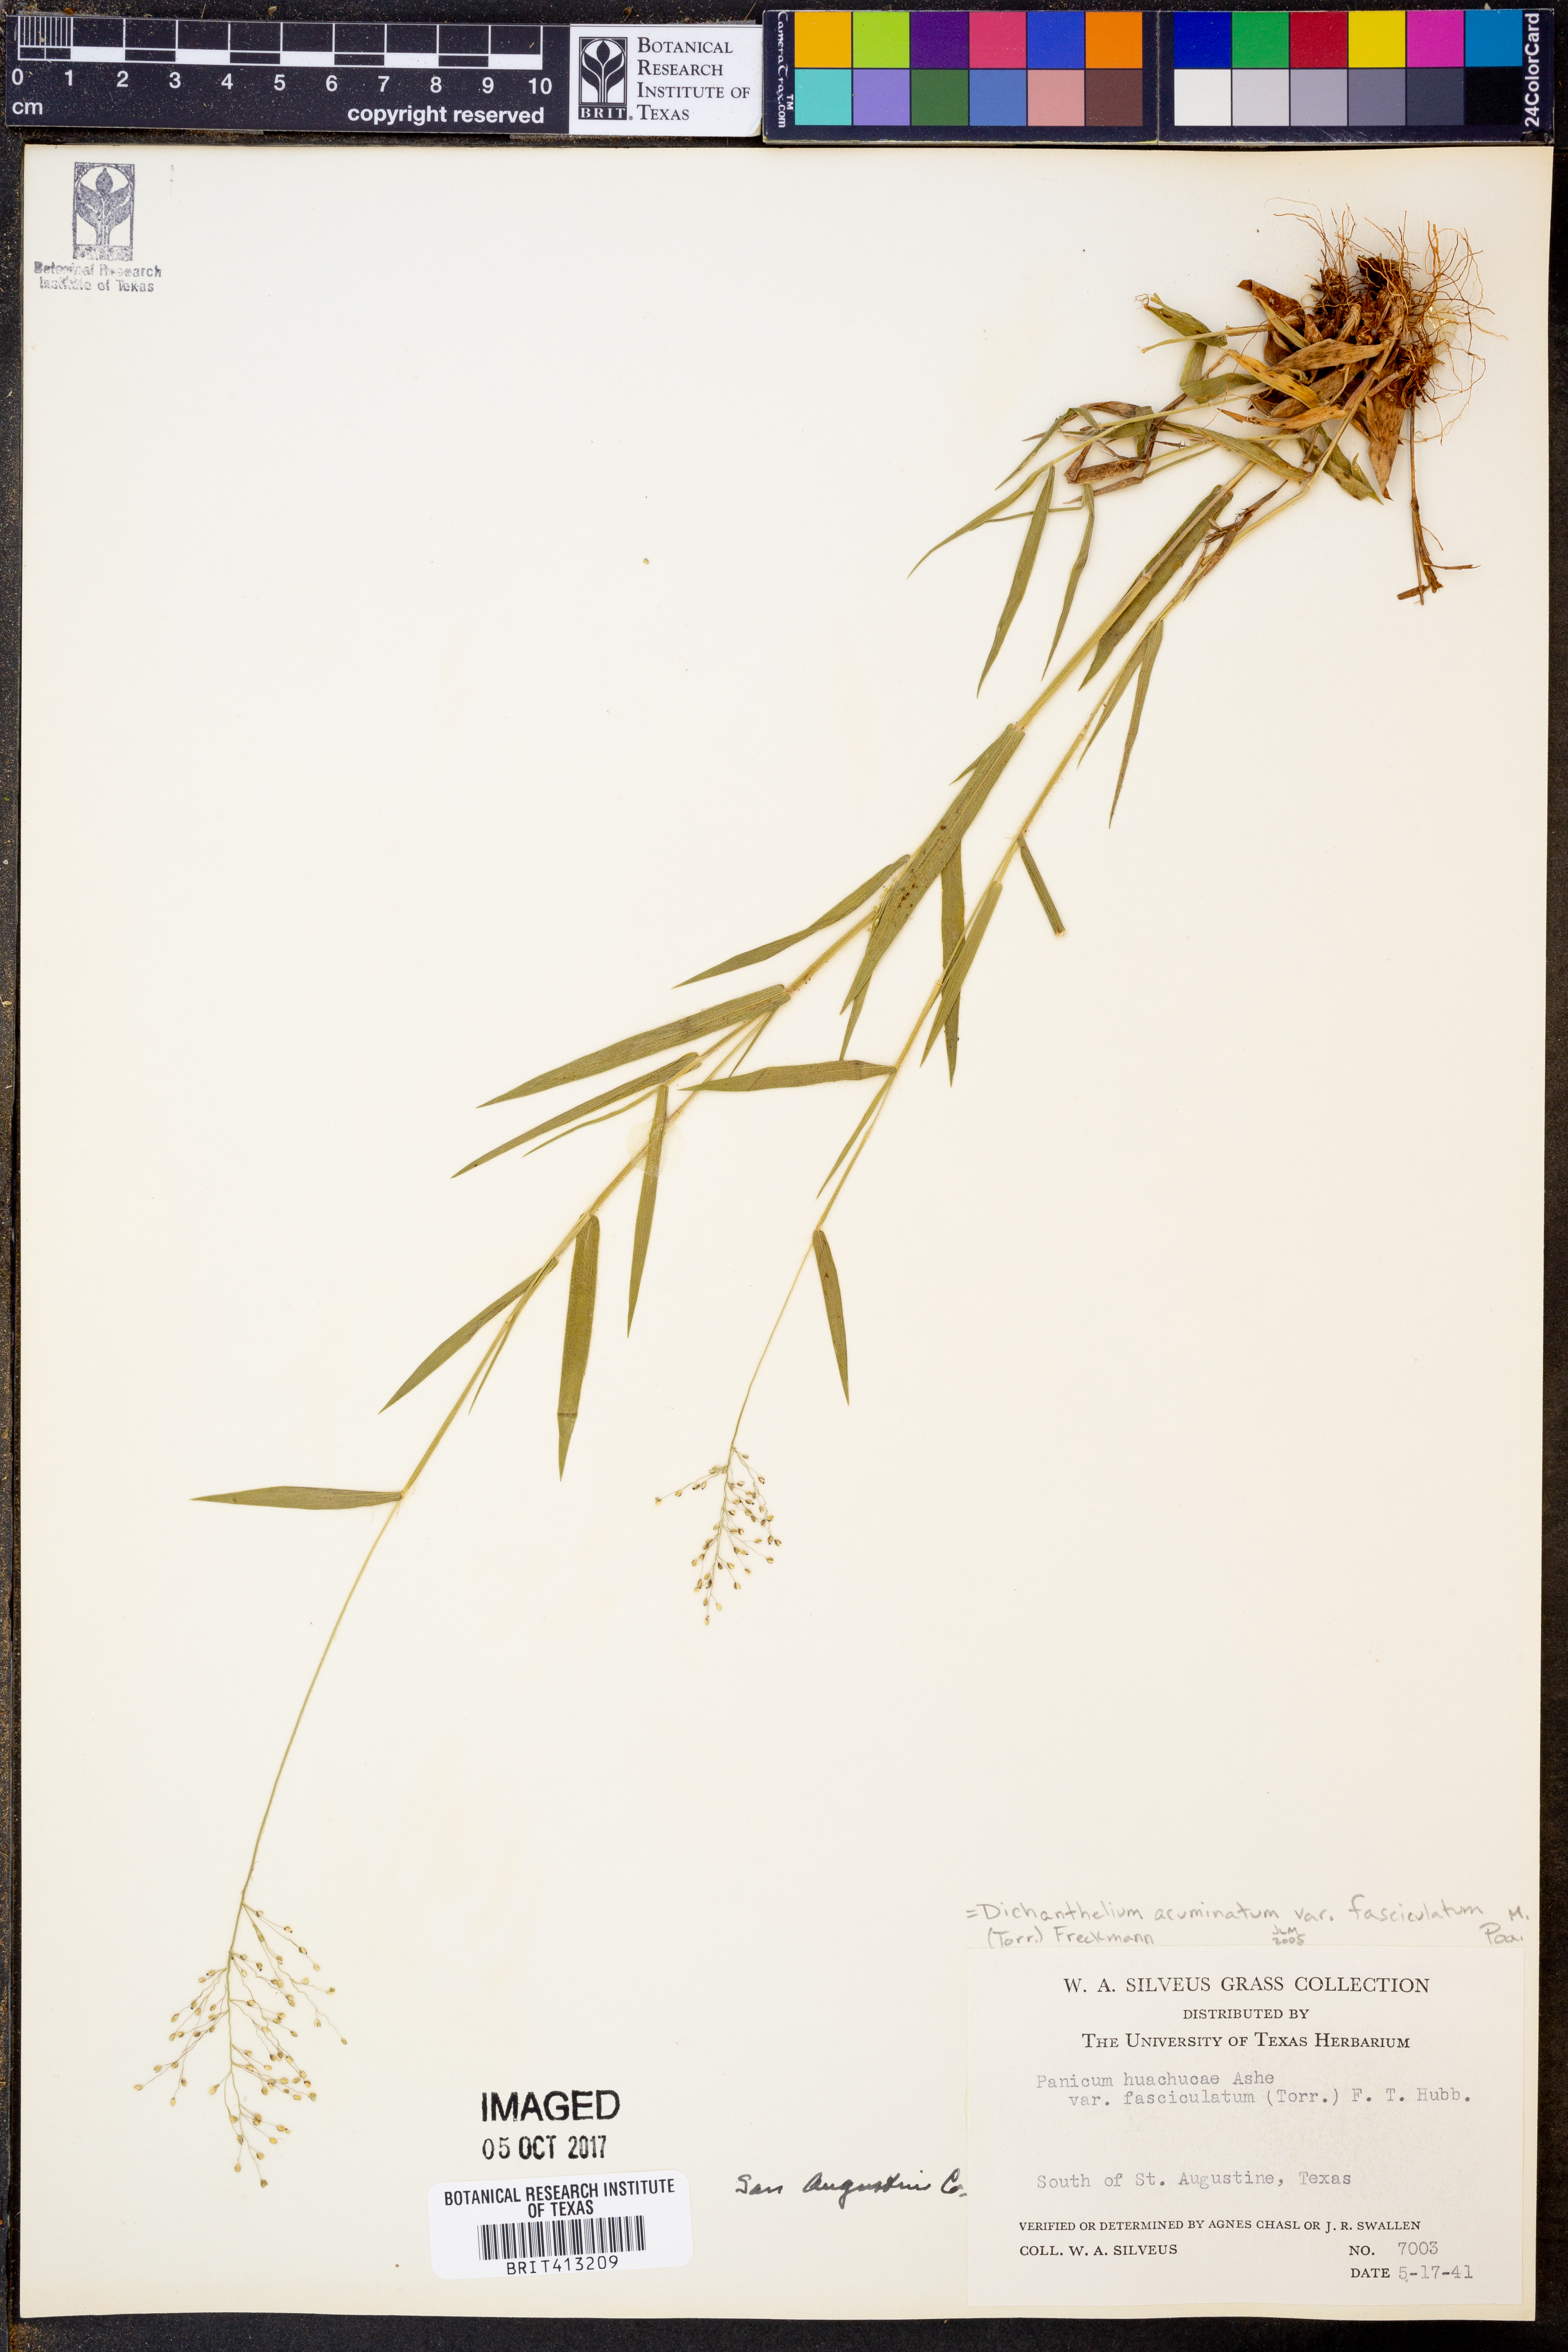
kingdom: Plantae
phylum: Tracheophyta
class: Liliopsida
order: Poales
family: Poaceae
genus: Dichanthelium
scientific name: Dichanthelium lanuginosum
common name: Woolly panicgrass
